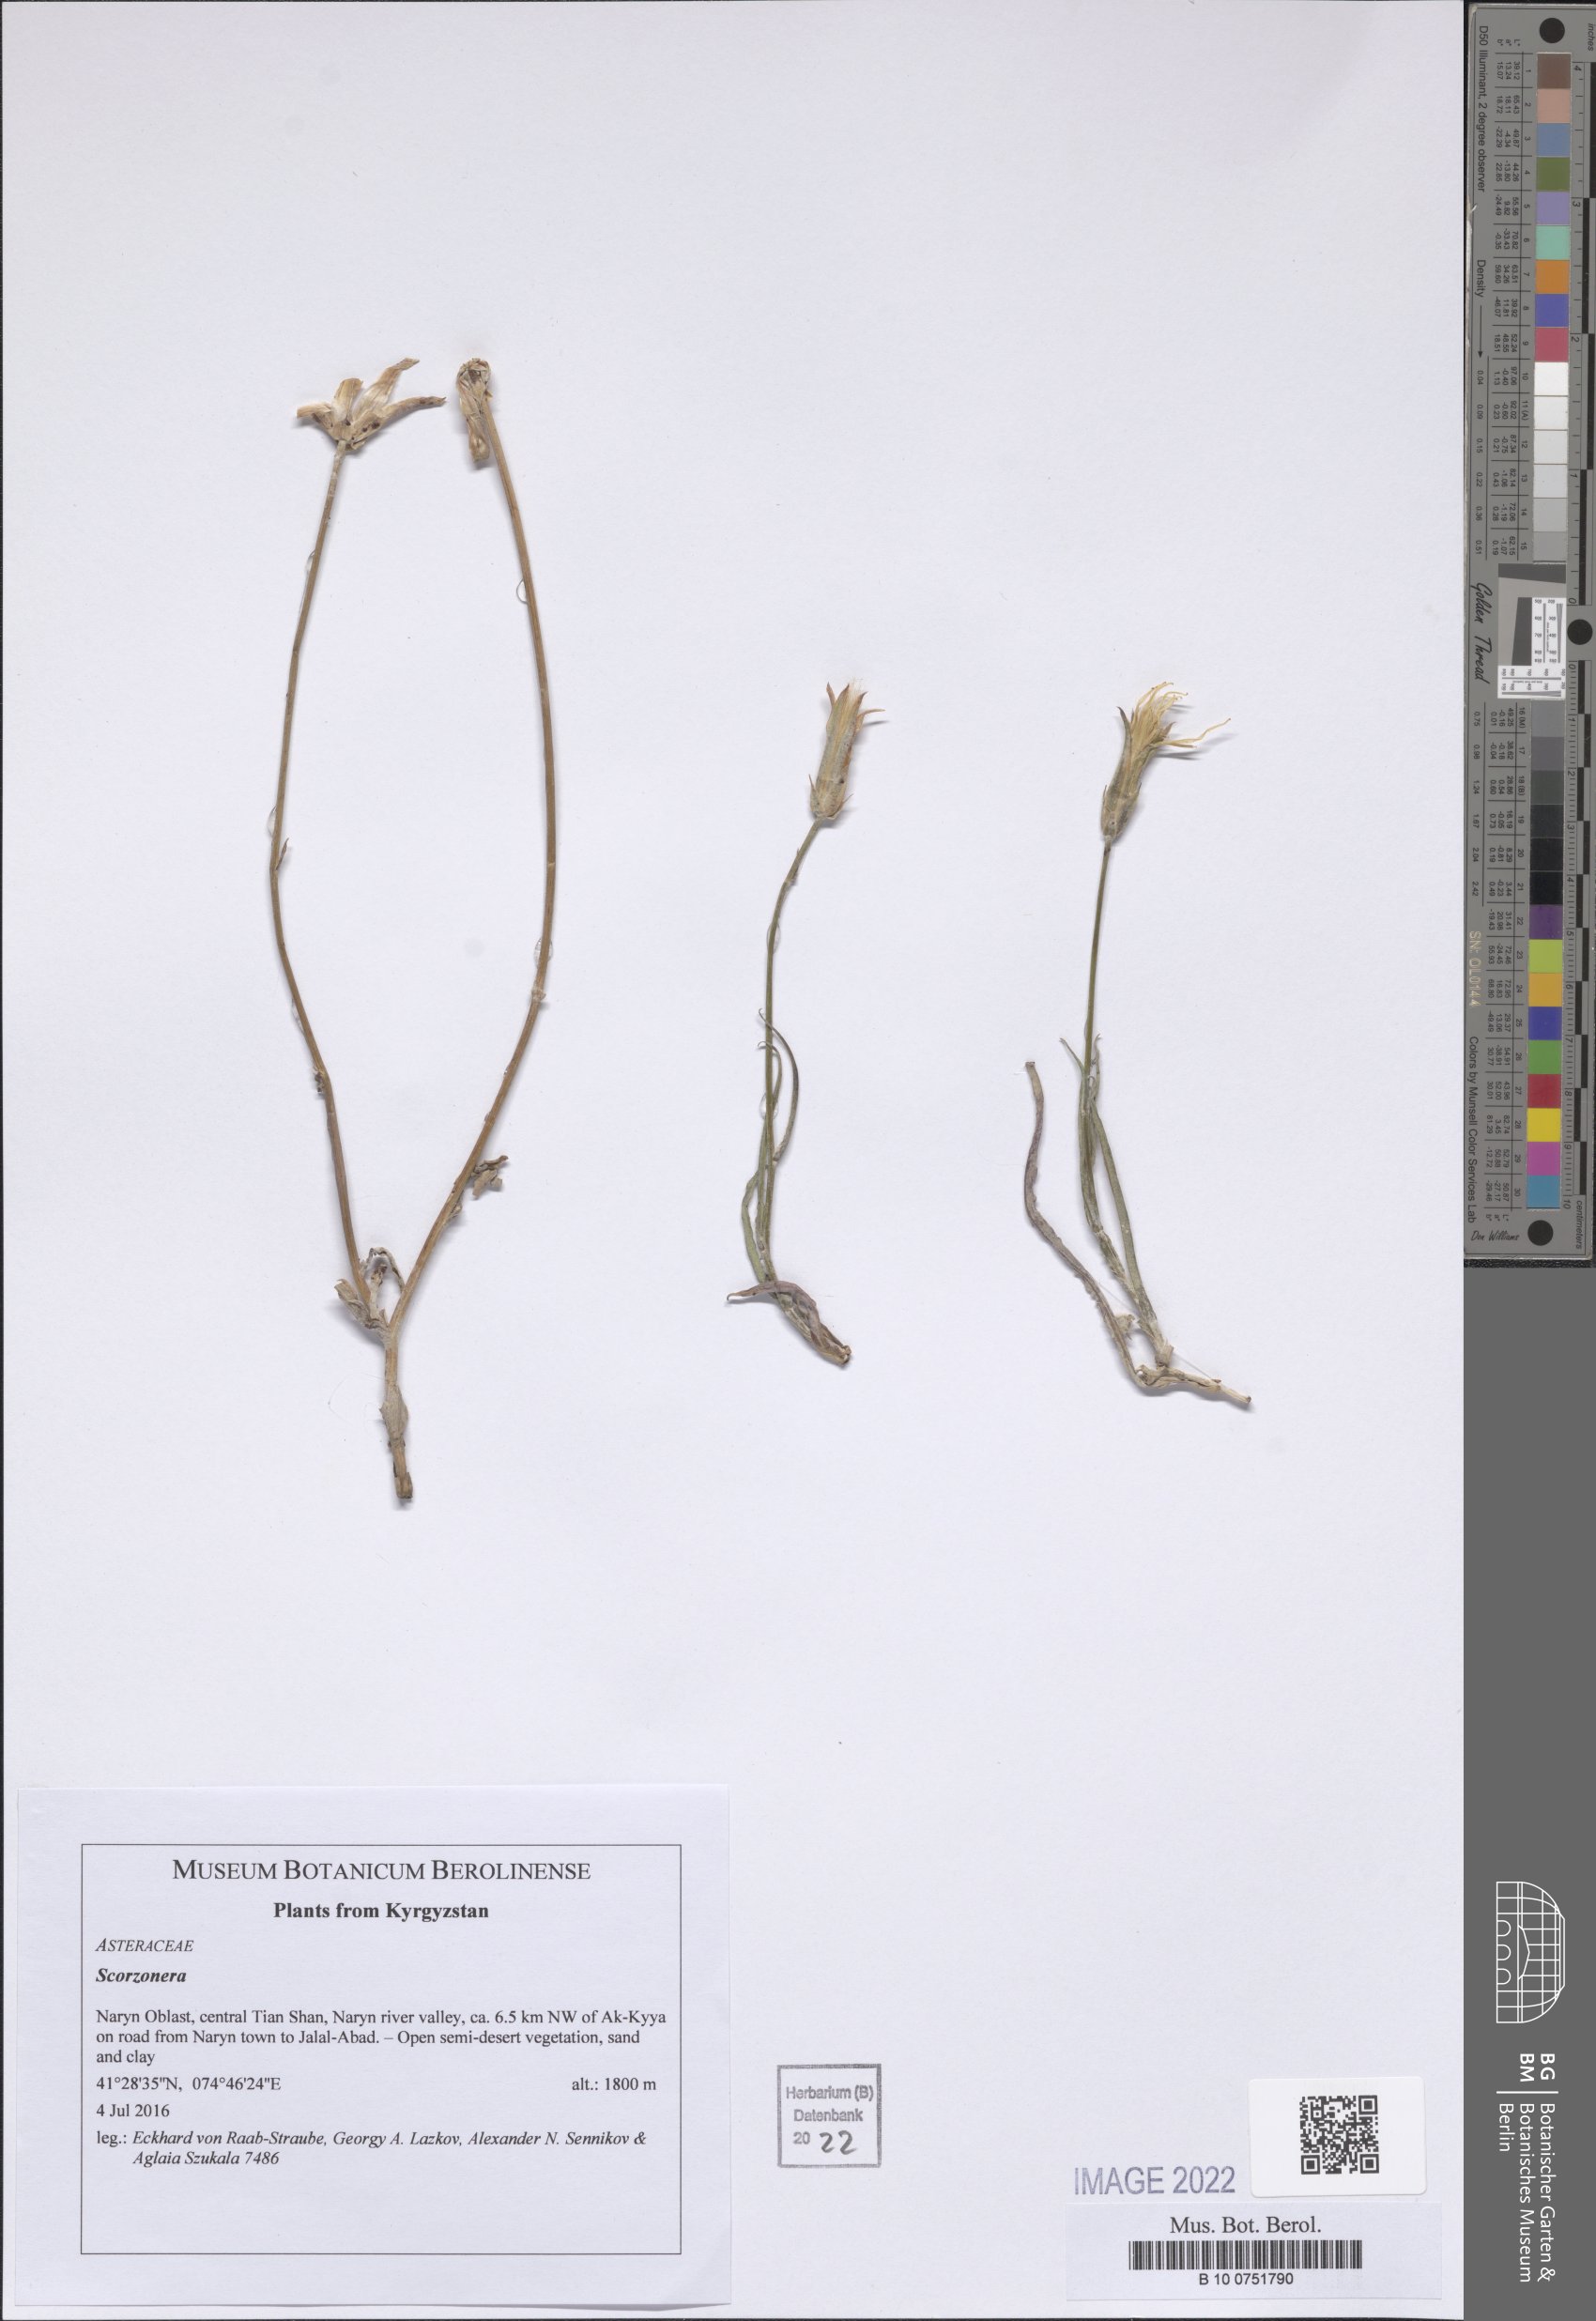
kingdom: Plantae
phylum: Tracheophyta
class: Magnoliopsida
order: Asterales
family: Asteraceae
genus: Scorzonera
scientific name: Scorzonera
